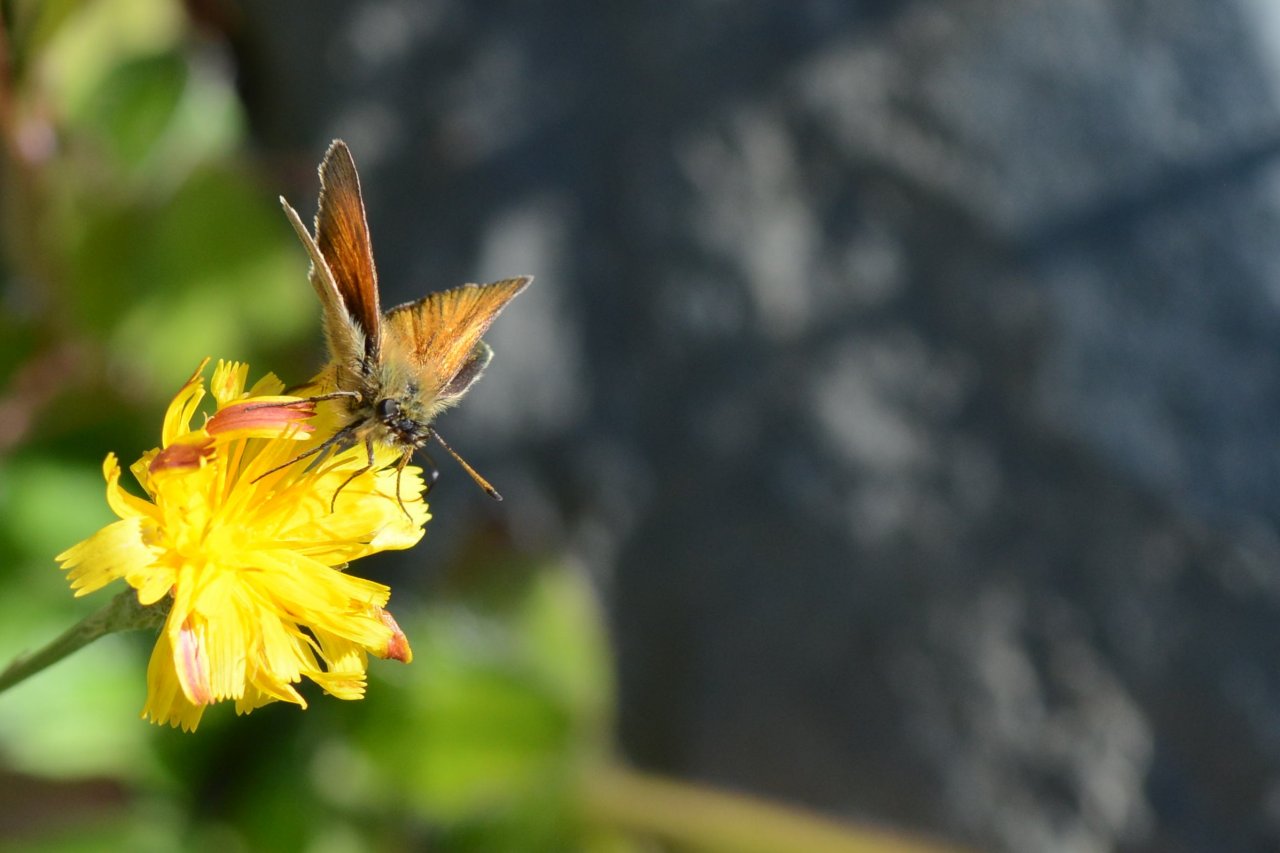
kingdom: Animalia
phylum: Arthropoda
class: Insecta
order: Lepidoptera
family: Hesperiidae
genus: Thymelicus
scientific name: Thymelicus lineola
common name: European Skipper
